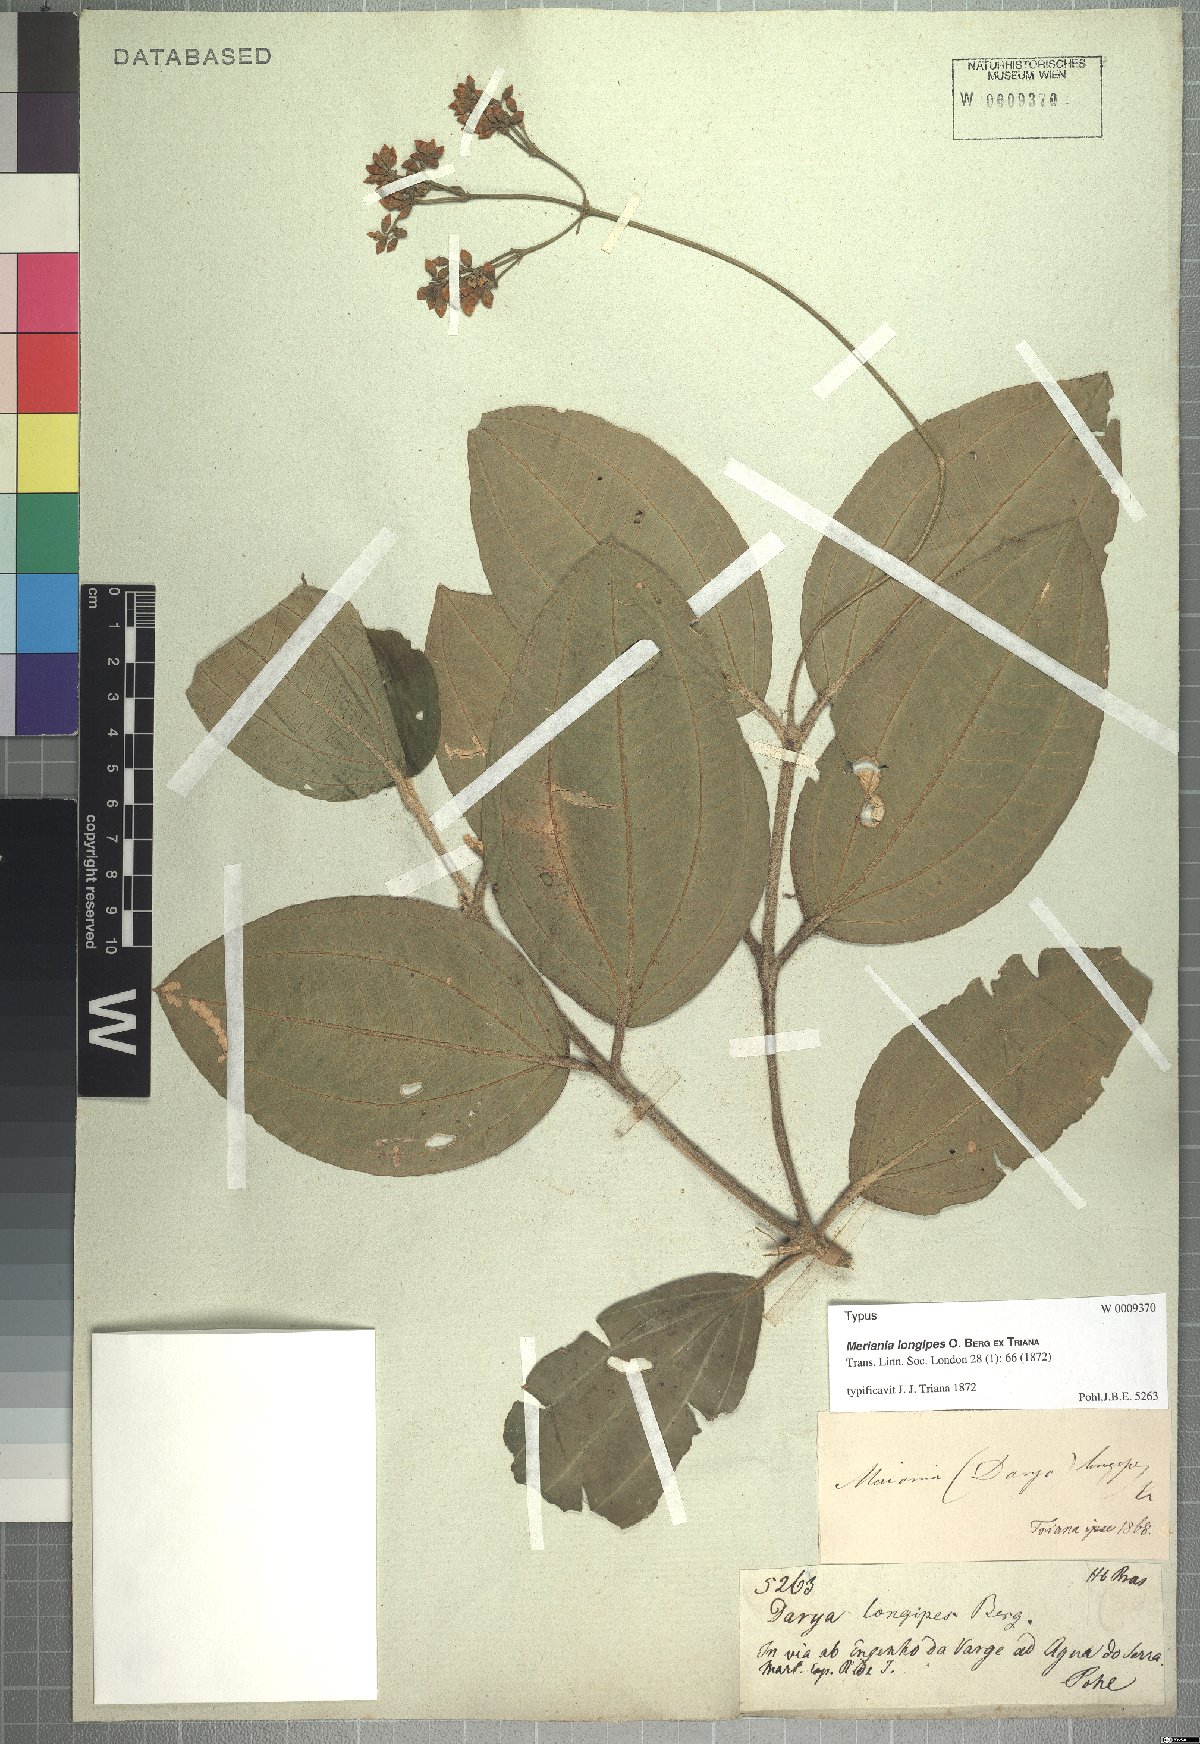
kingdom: Plantae
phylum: Tracheophyta
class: Magnoliopsida
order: Myrtales
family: Melastomataceae
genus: Meriania
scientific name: Meriania longipes
